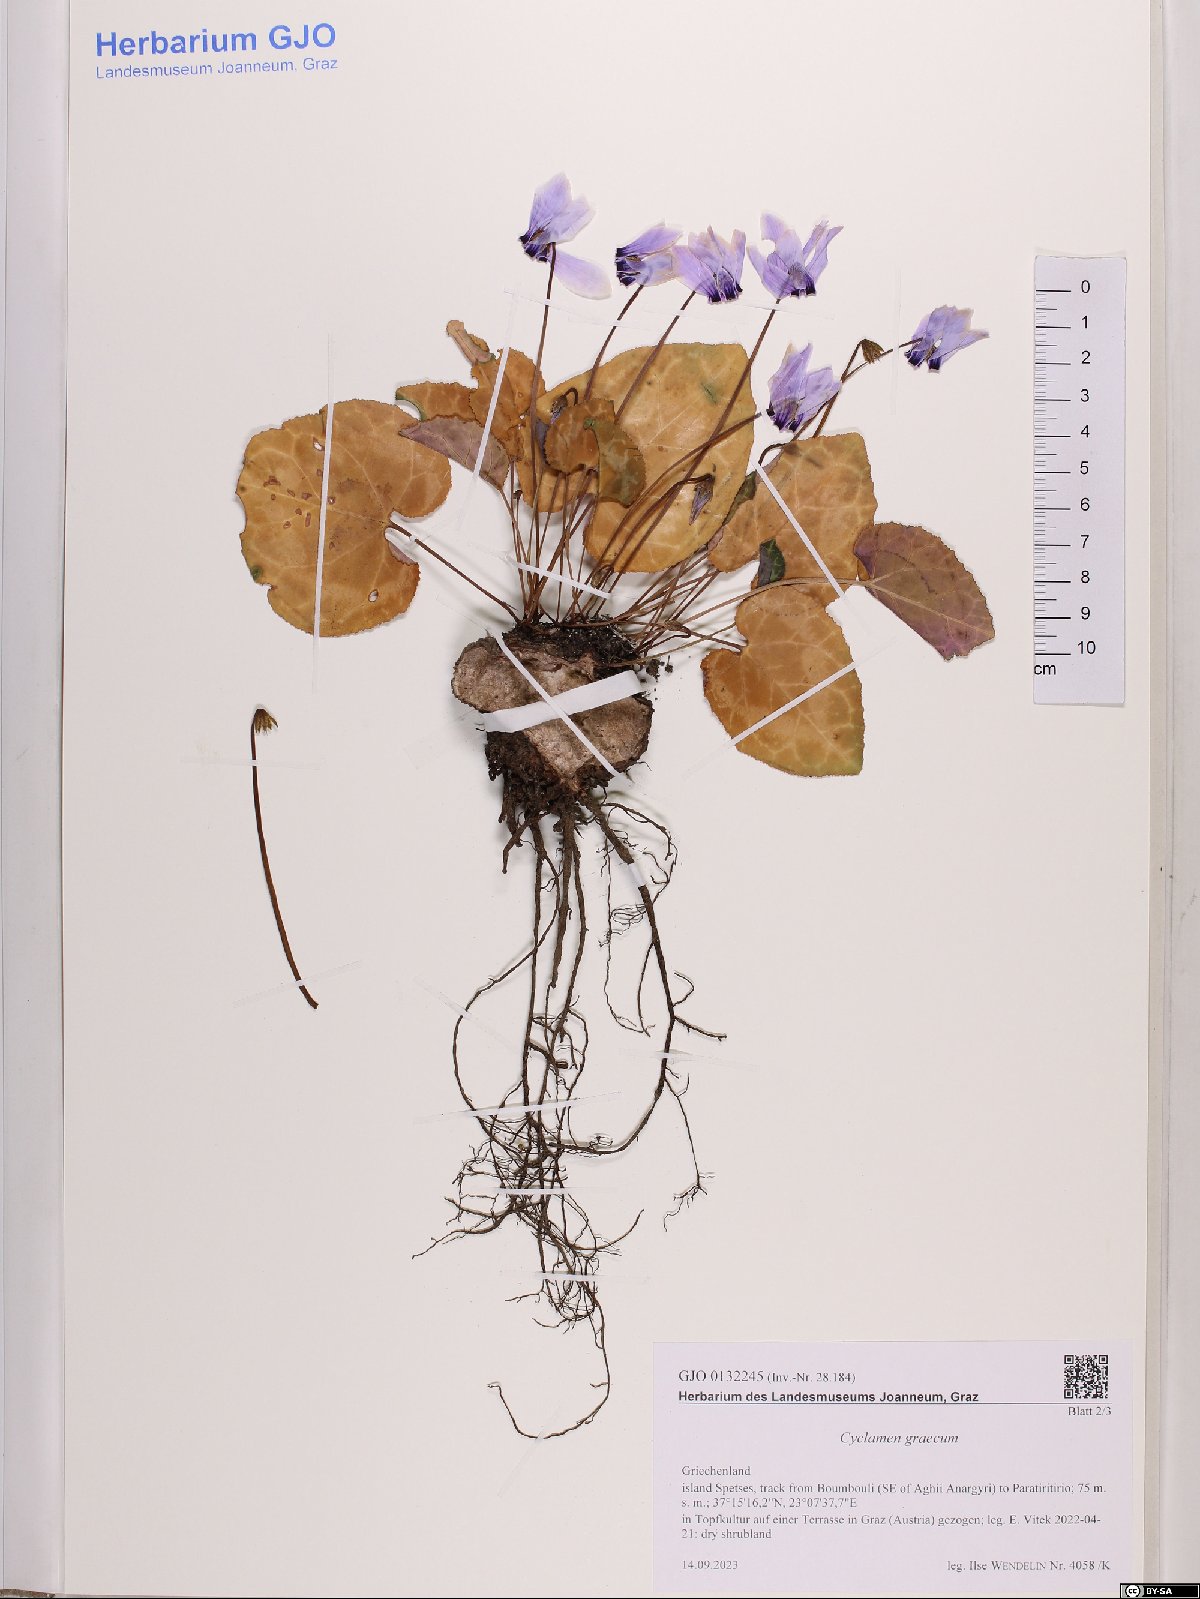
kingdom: Plantae
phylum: Tracheophyta
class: Magnoliopsida
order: Ericales
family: Primulaceae
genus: Cyclamen
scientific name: Cyclamen graecum
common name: Greek cyclamen
